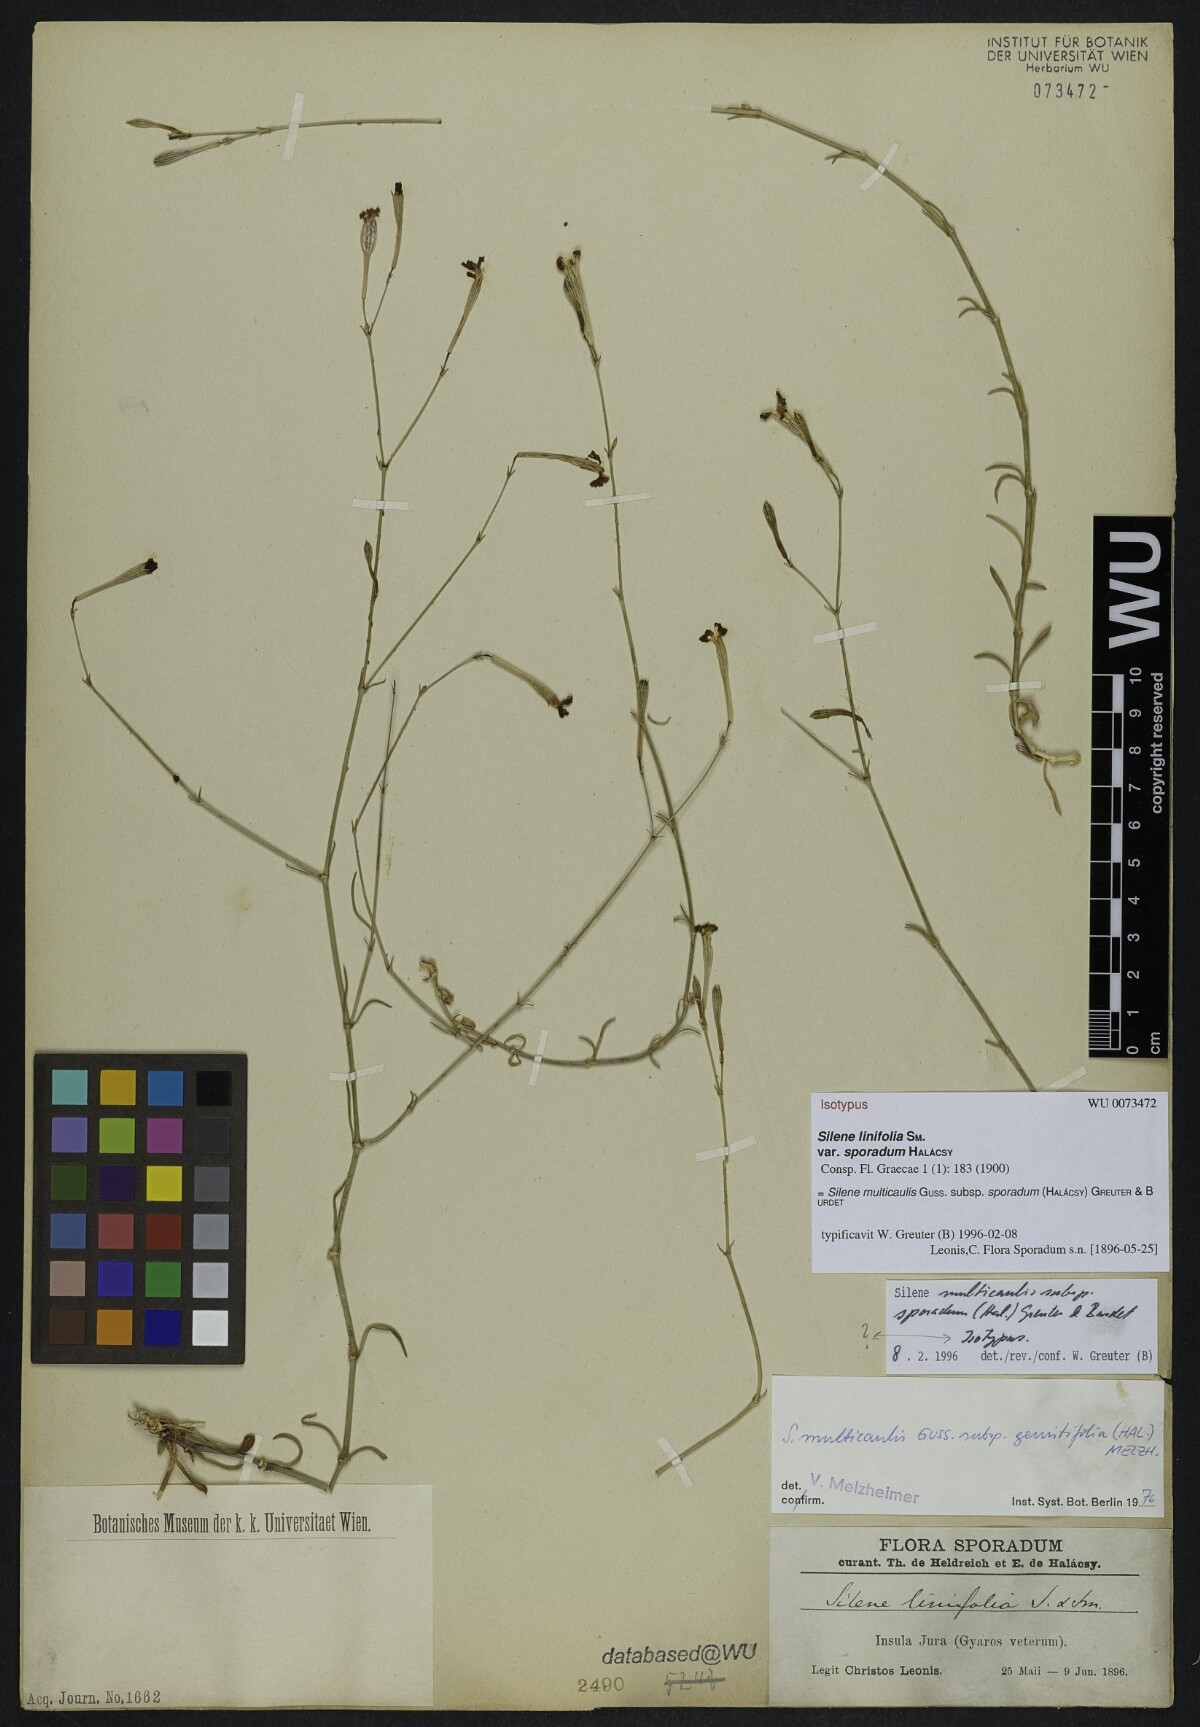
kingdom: Plantae
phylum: Tracheophyta
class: Magnoliopsida
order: Caryophyllales
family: Caryophyllaceae
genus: Silene
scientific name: Silene multicaulis
